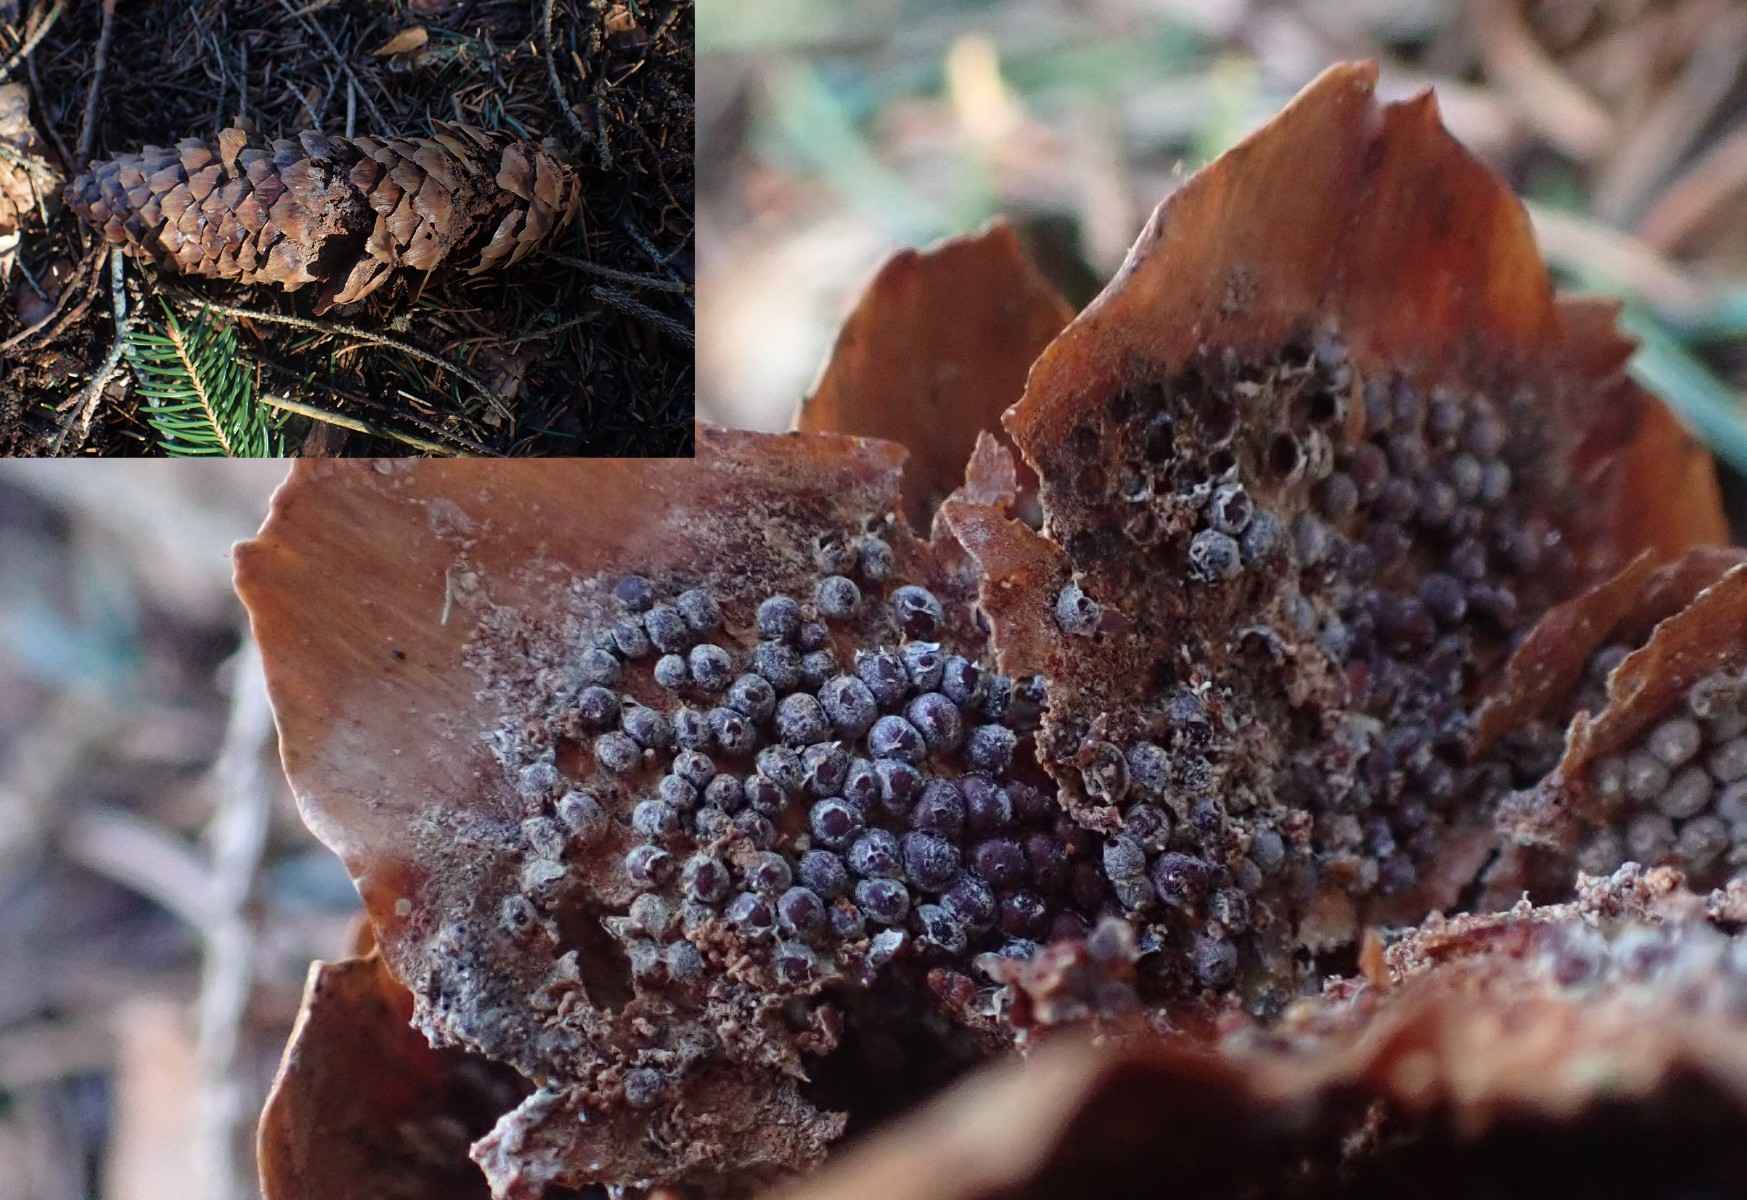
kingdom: Fungi
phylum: Basidiomycota
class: Pucciniomycetes
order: Pucciniales
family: Pucciniastraceae
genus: Thekopsora
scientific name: Thekopsora areolata
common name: grankogle-nålerust
